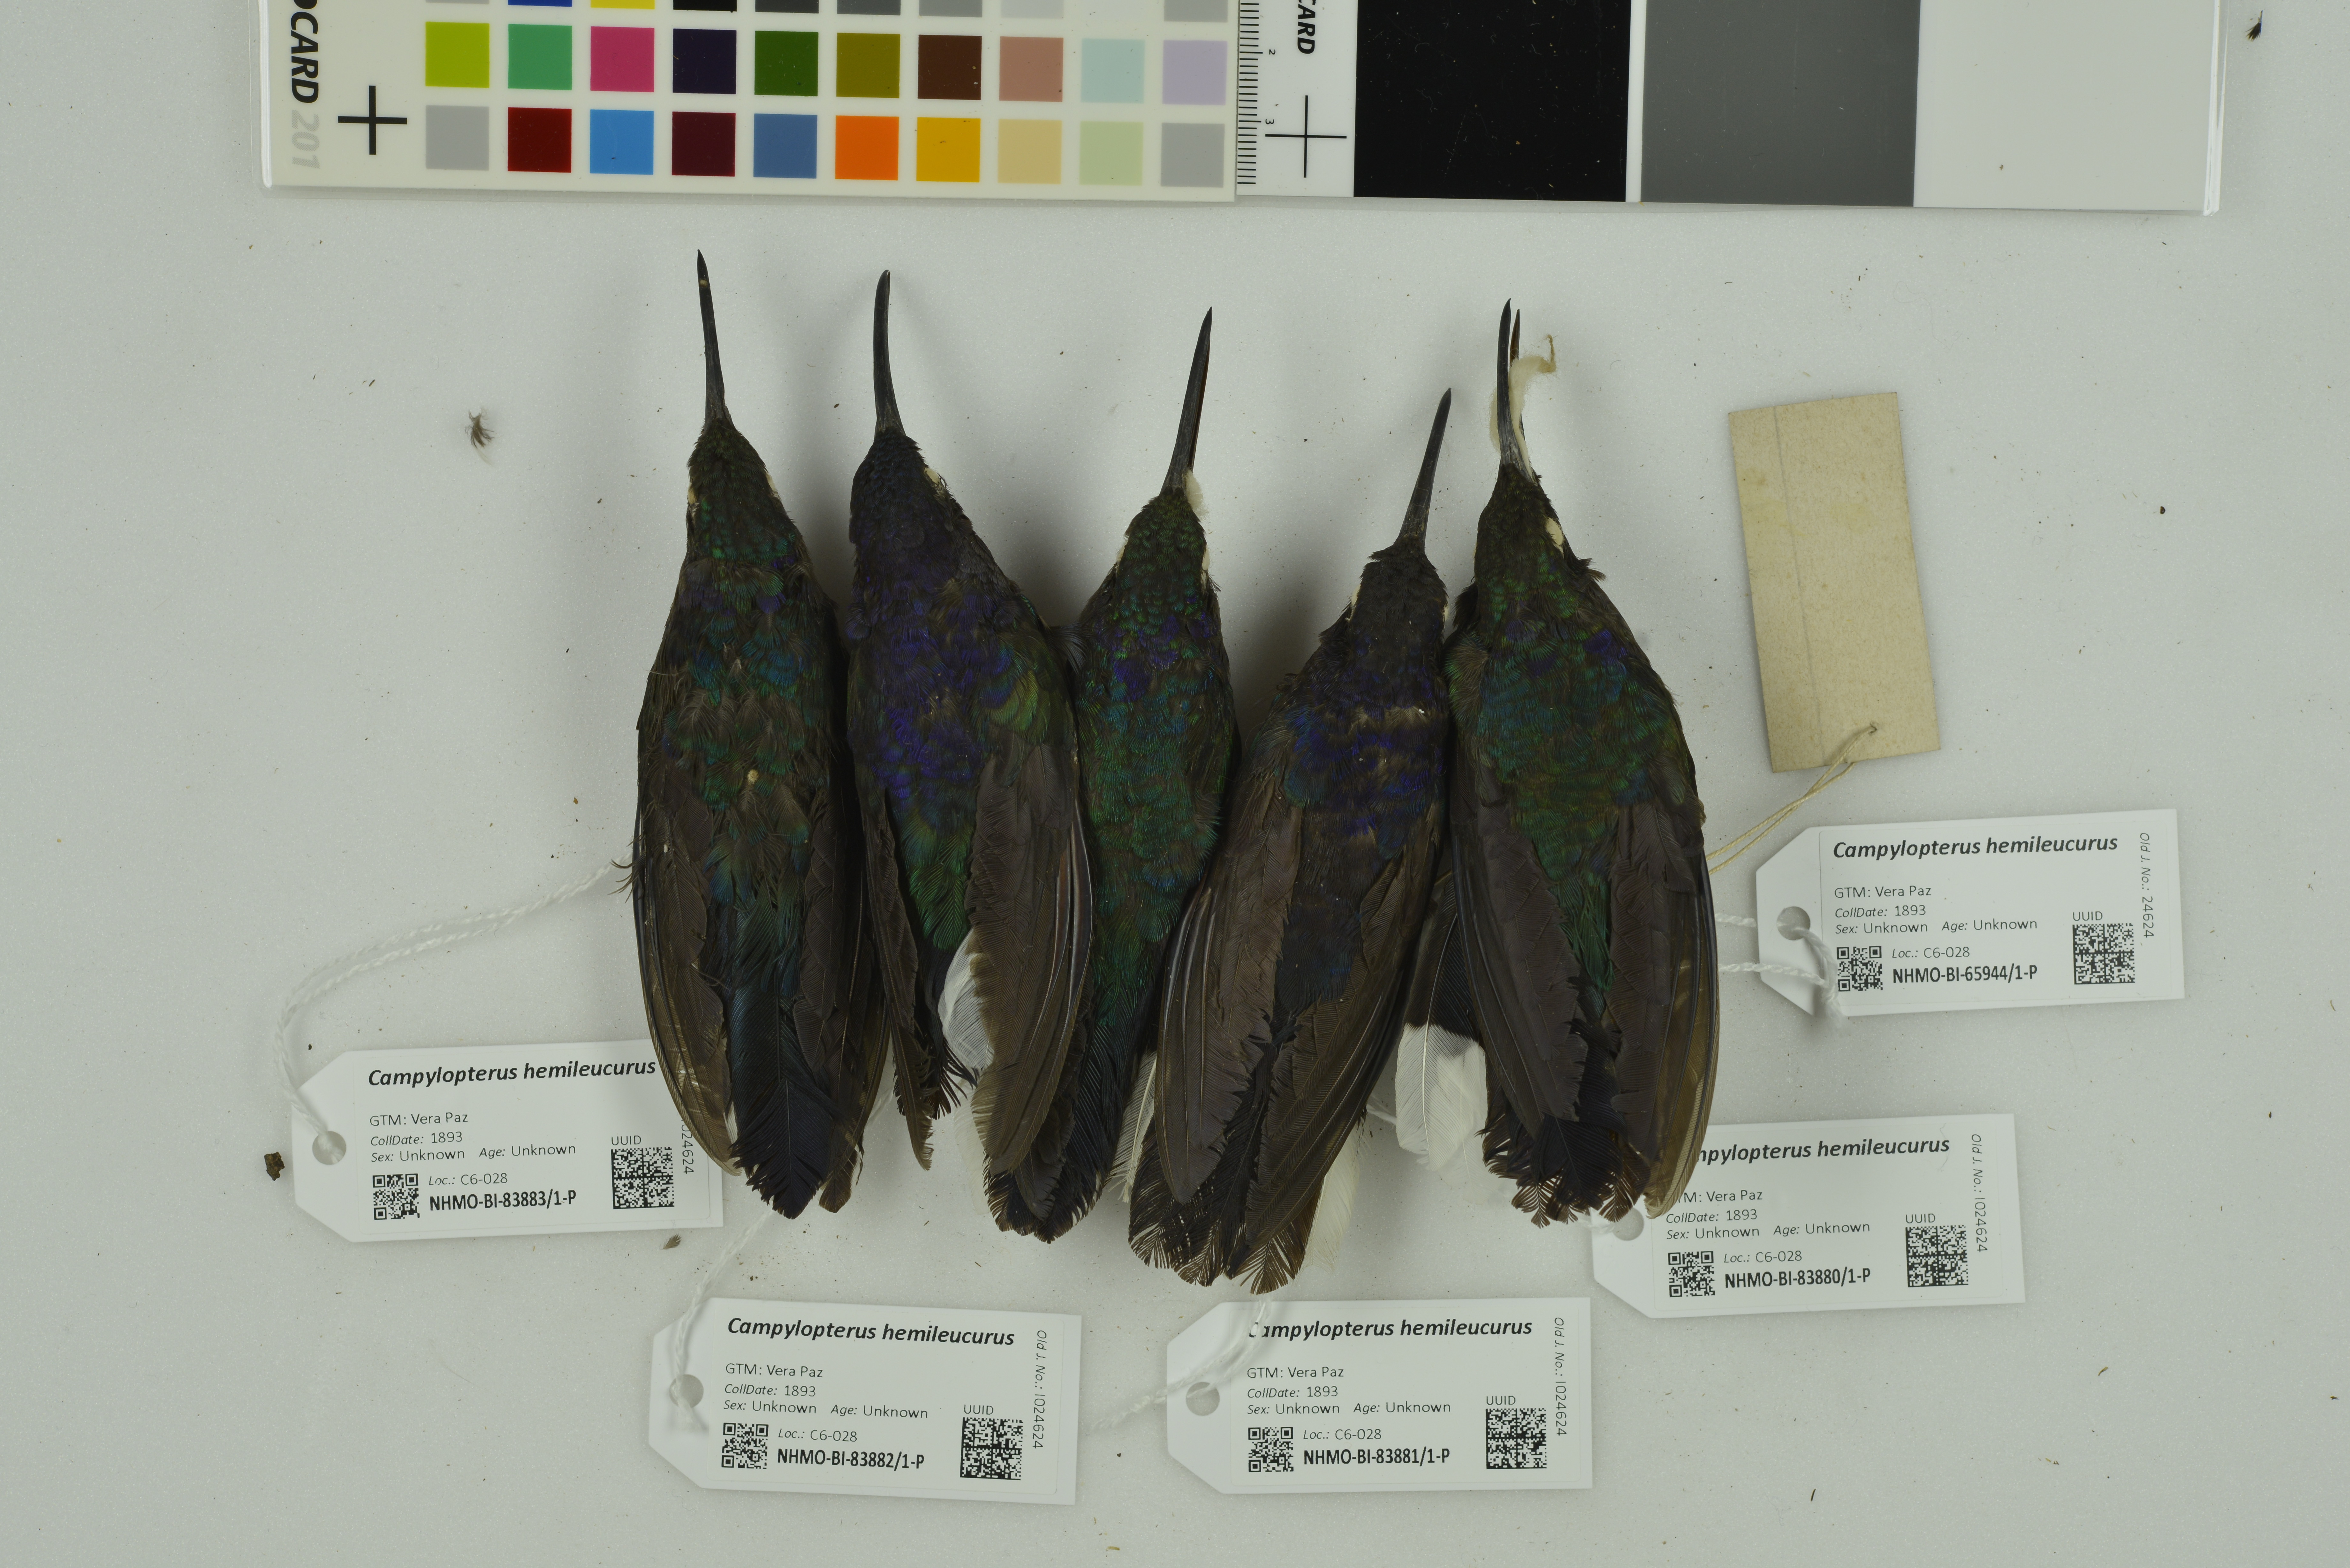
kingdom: Animalia
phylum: Chordata
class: Aves
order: Apodiformes
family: Trochilidae
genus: Campylopterus
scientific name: Campylopterus hemileucurus
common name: Violet sabrewing
